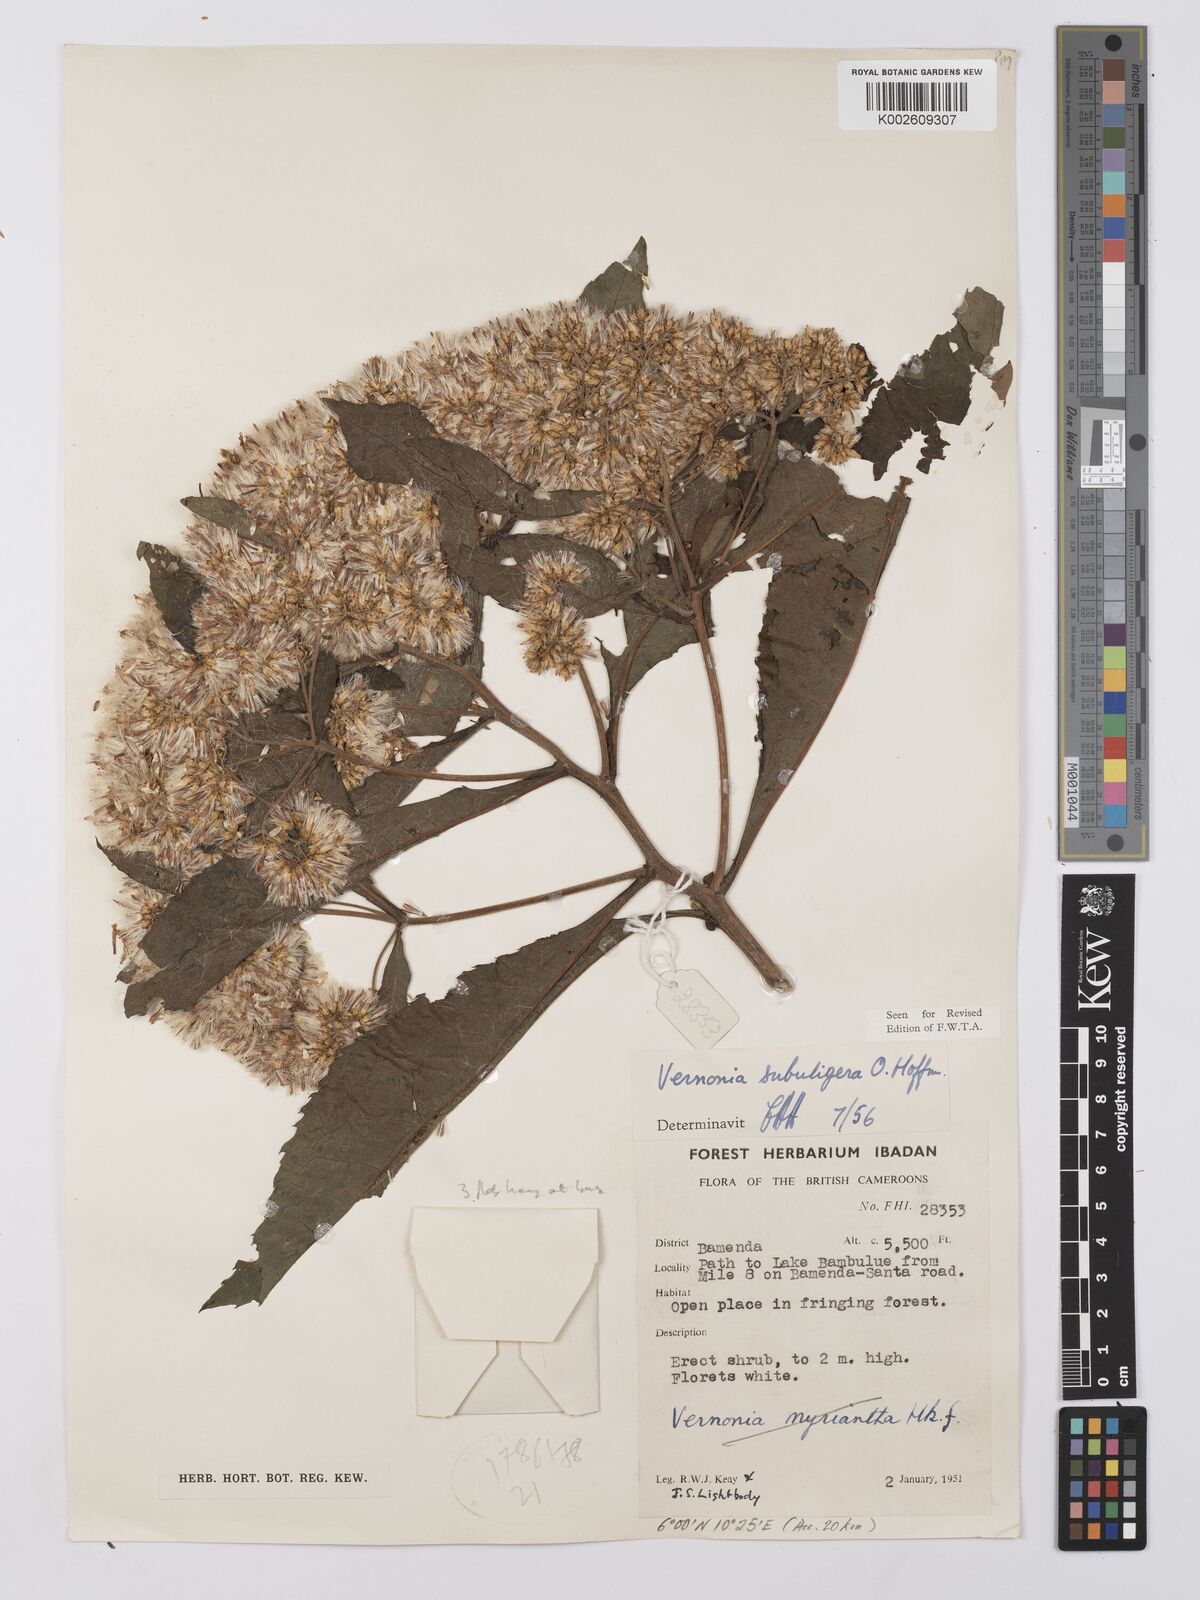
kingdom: Plantae
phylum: Tracheophyta
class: Magnoliopsida
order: Asterales
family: Asteraceae
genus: Gymnanthemum
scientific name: Gymnanthemum myrianthum
